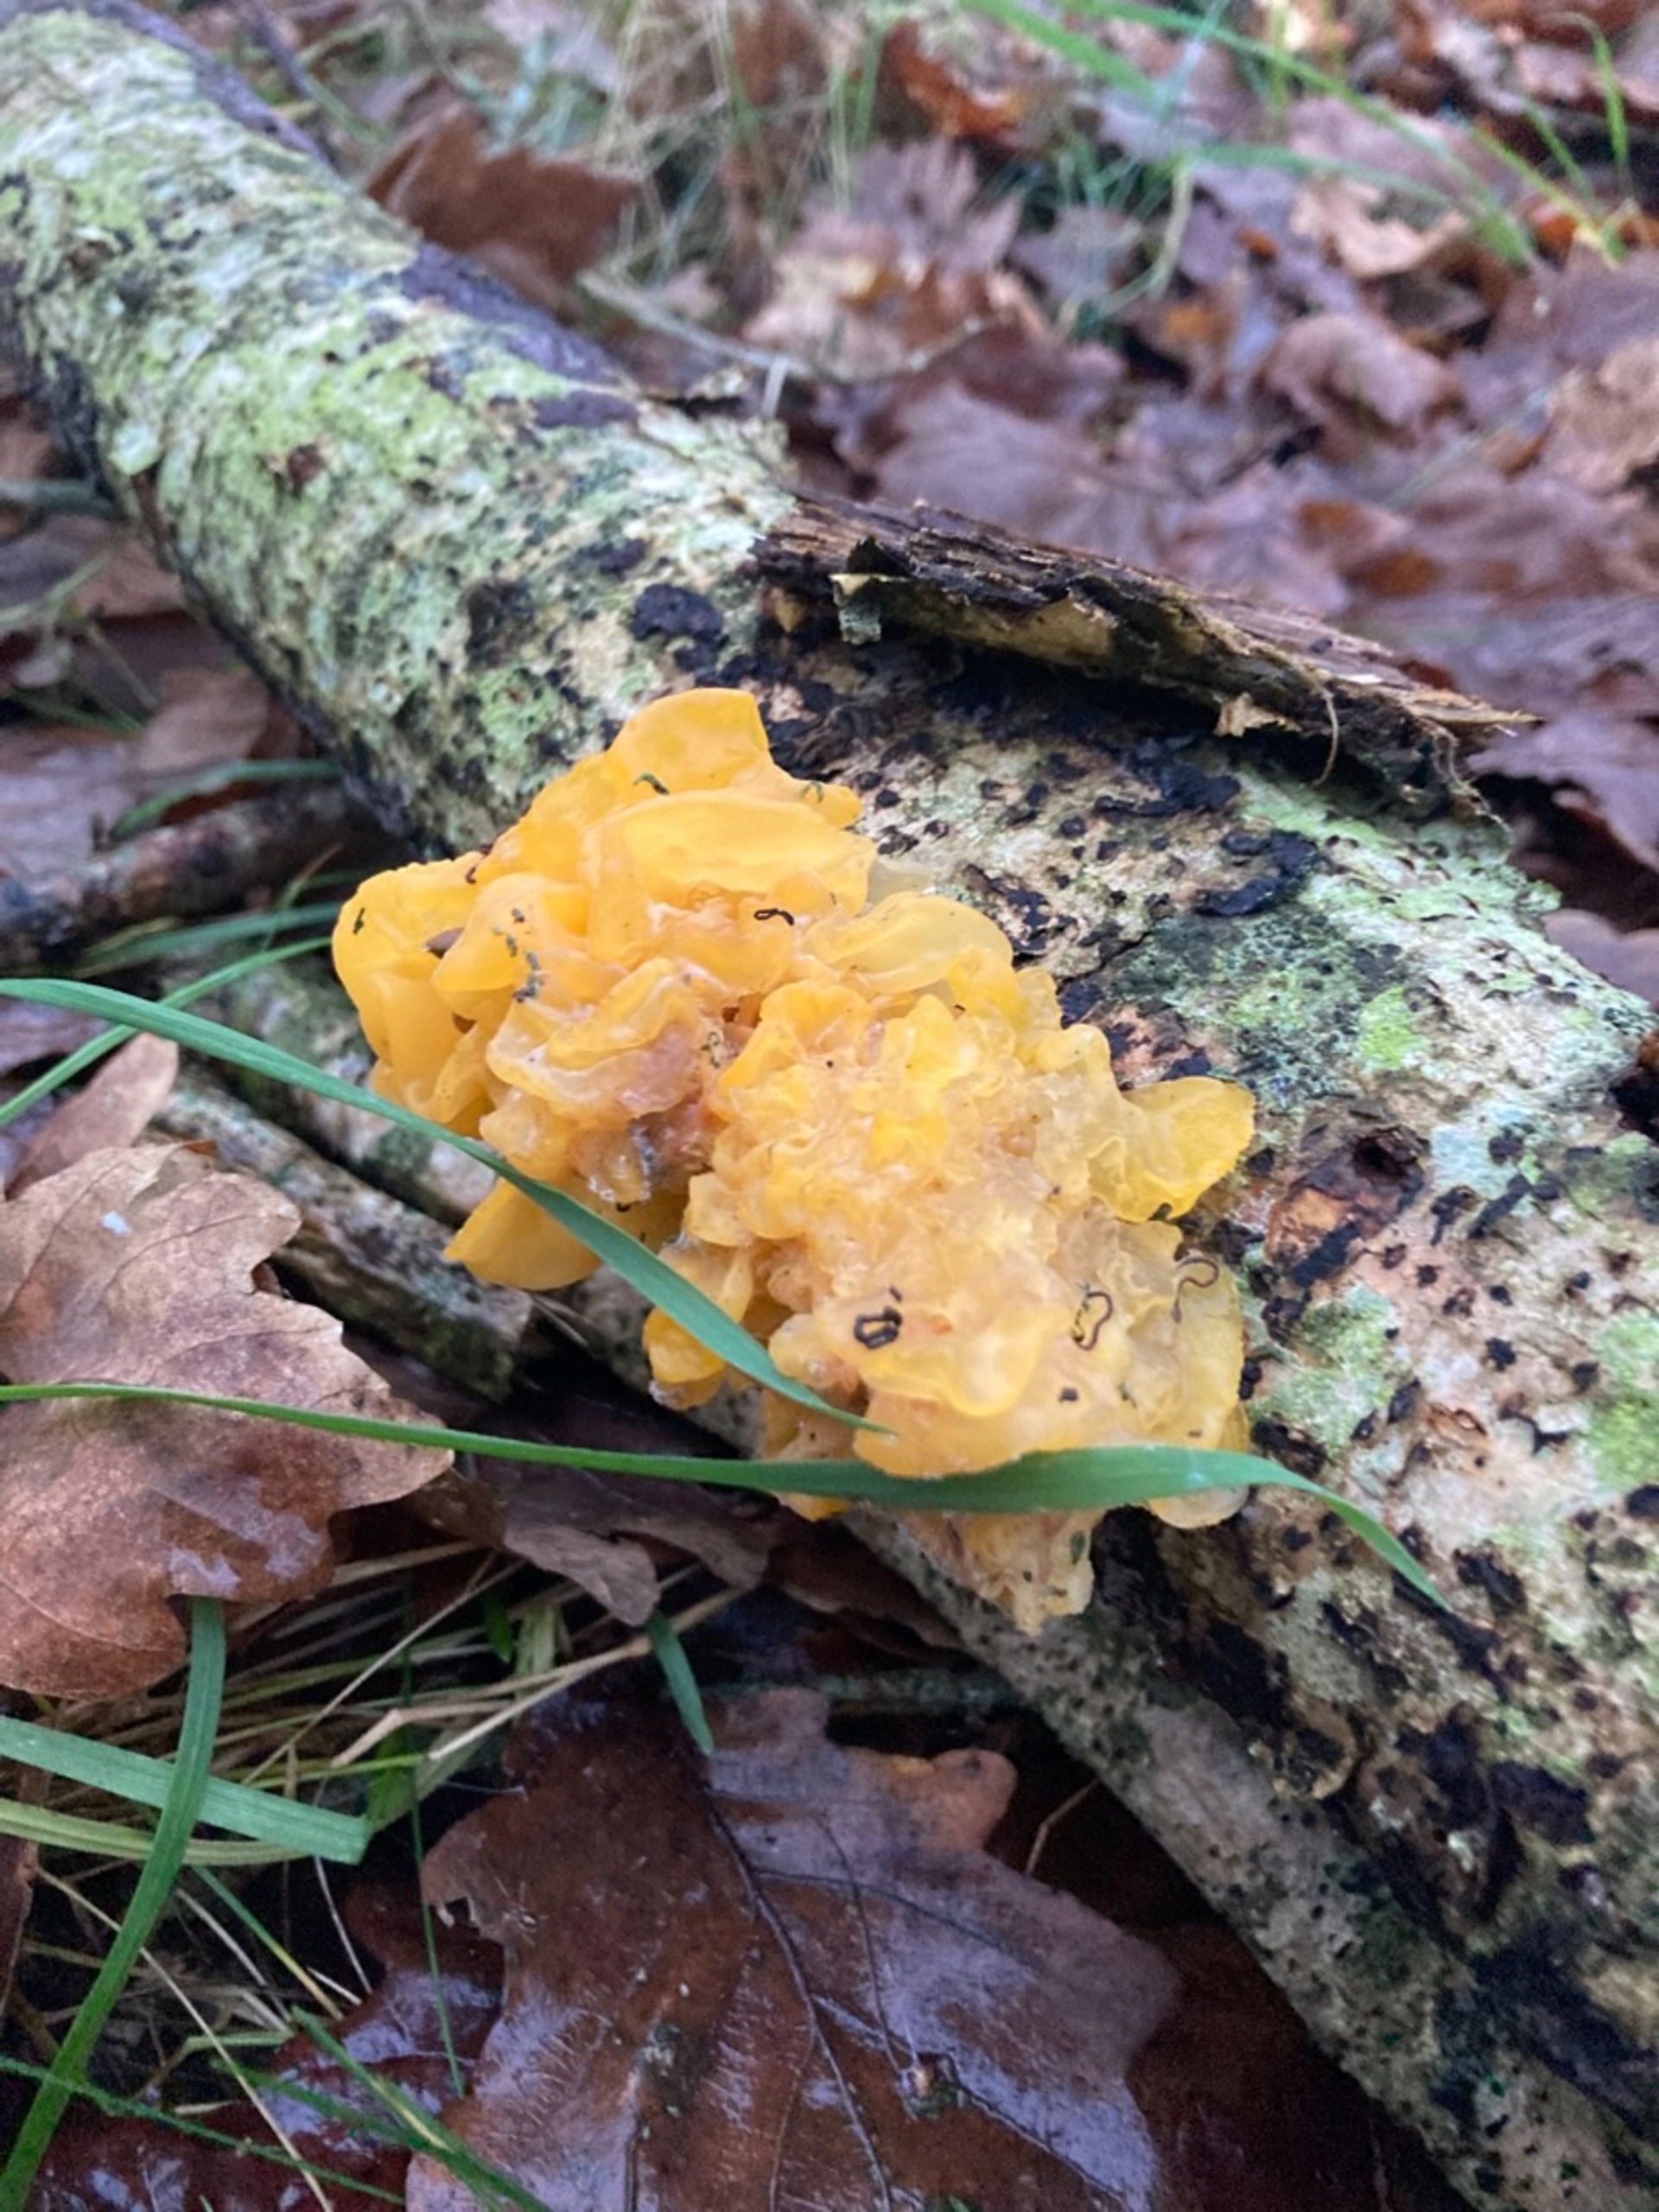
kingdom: Fungi
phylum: Basidiomycota
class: Tremellomycetes
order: Tremellales
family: Tremellaceae
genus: Tremella
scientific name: Tremella mesenterica
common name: Gul bævresvamp
